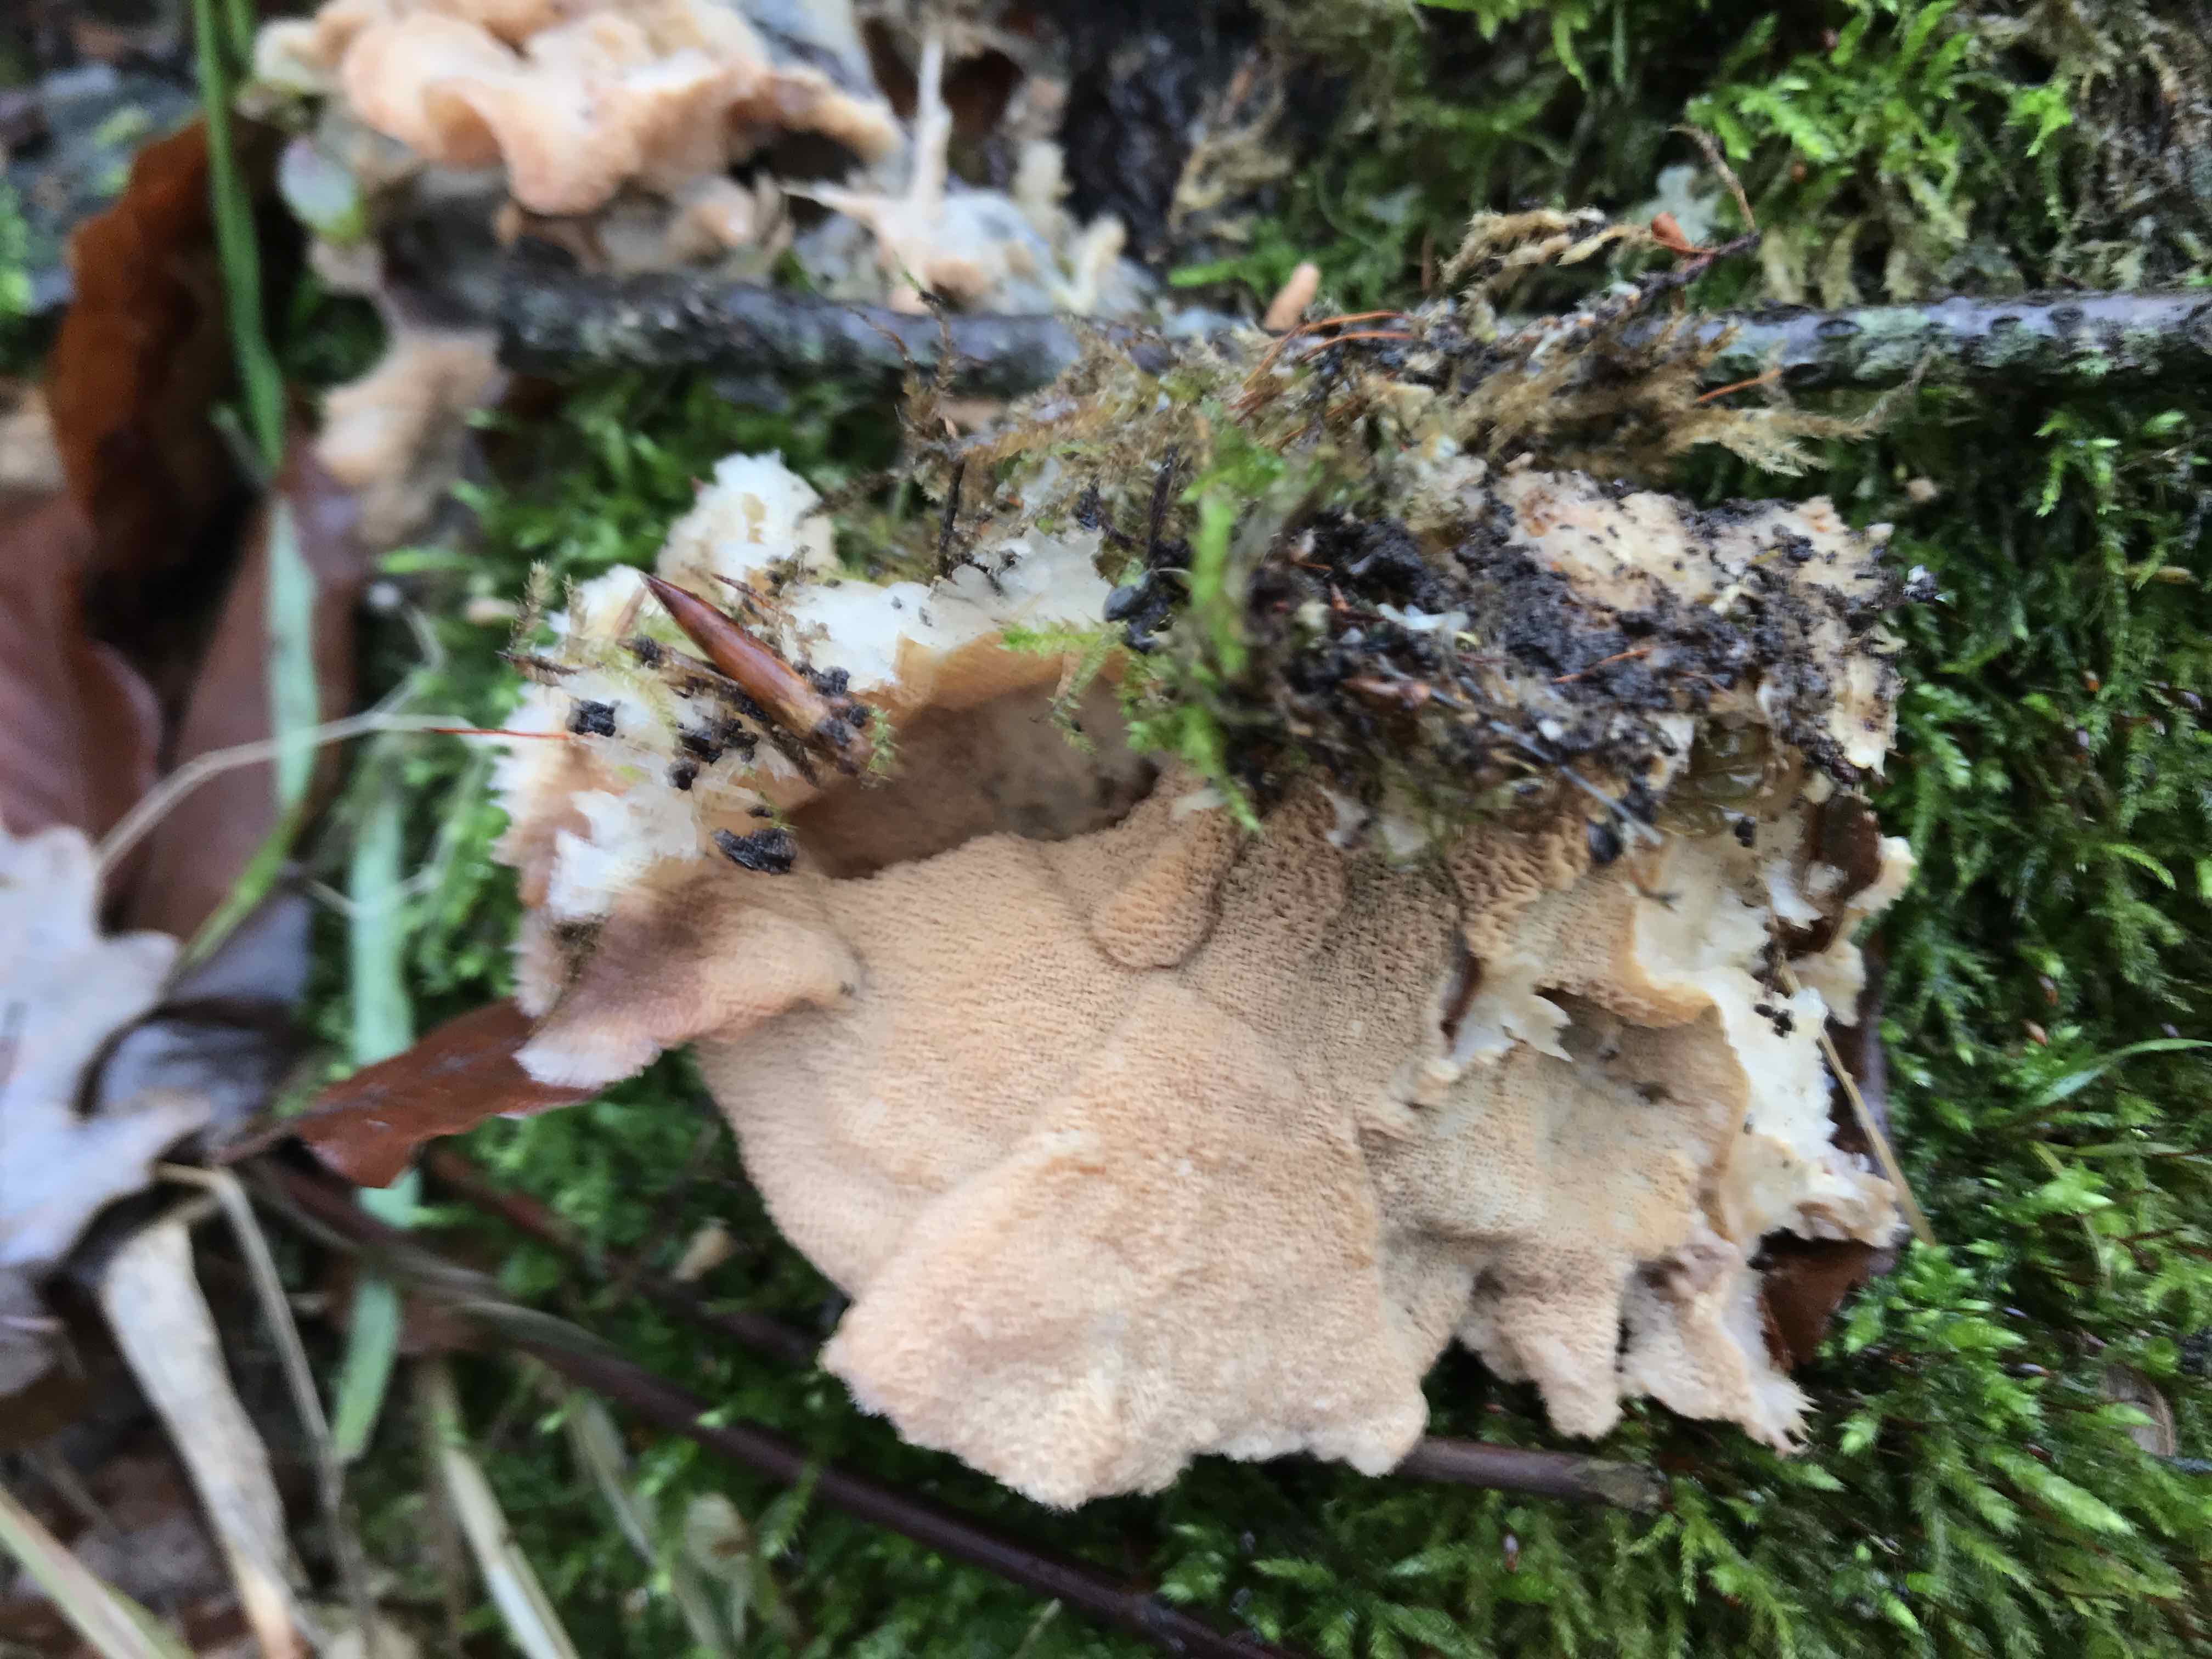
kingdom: Fungi
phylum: Basidiomycota
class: Agaricomycetes
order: Polyporales
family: Meruliaceae
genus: Phlebia
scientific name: Phlebia tremellosa
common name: bævrende åresvamp
